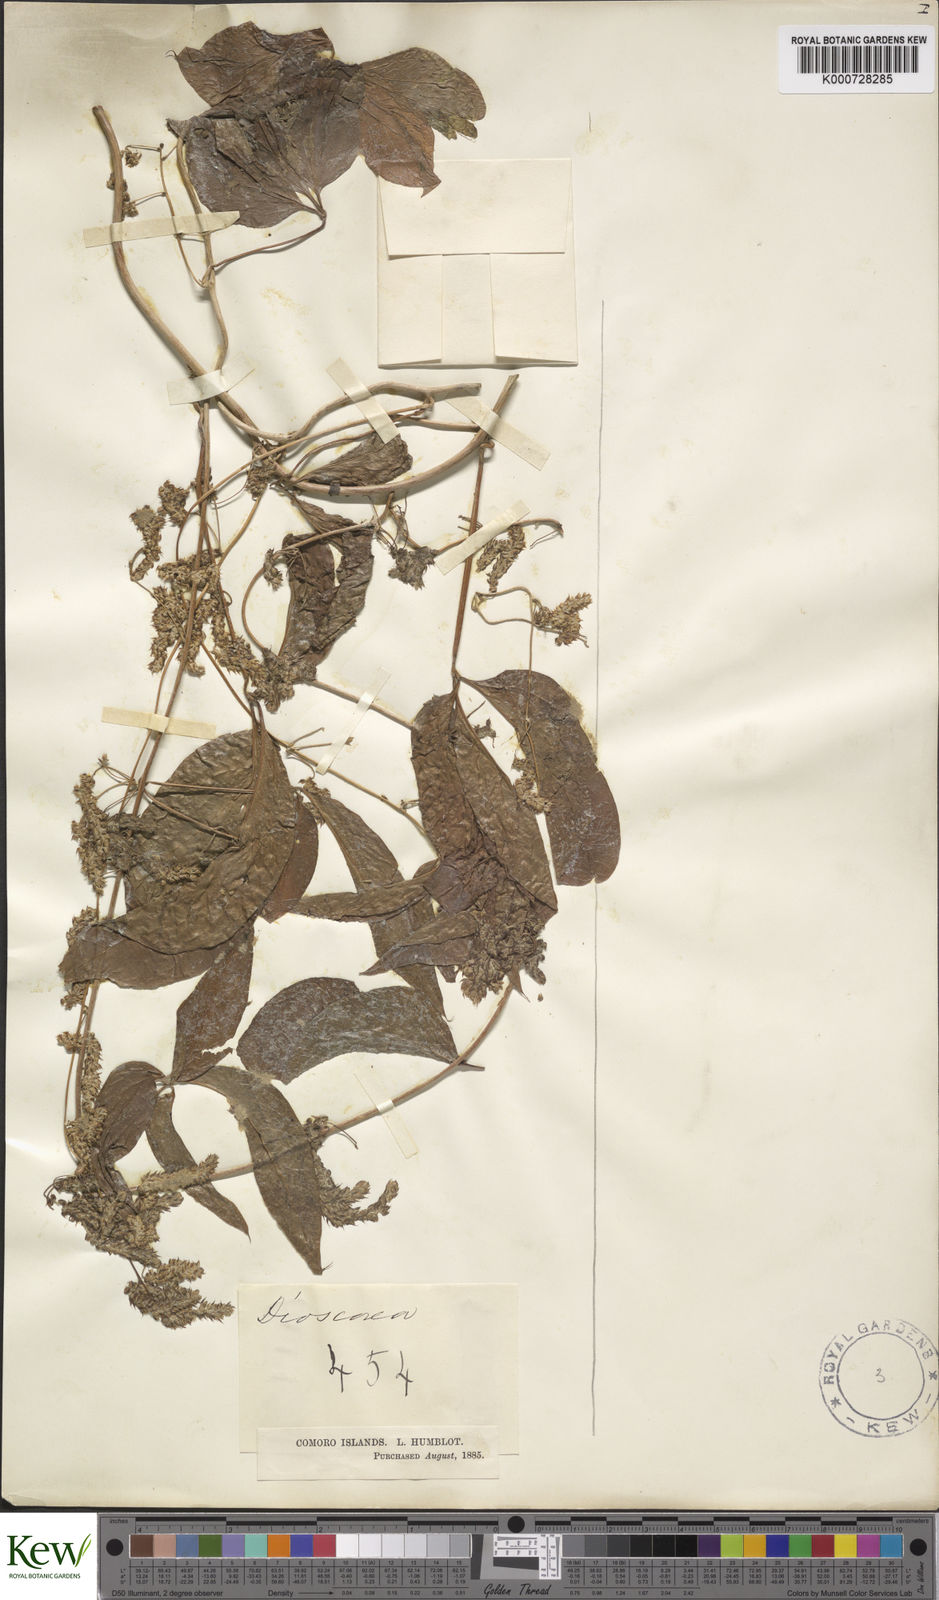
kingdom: Plantae
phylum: Tracheophyta
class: Liliopsida
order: Dioscoreales
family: Dioscoreaceae
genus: Dioscorea
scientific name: Dioscorea
